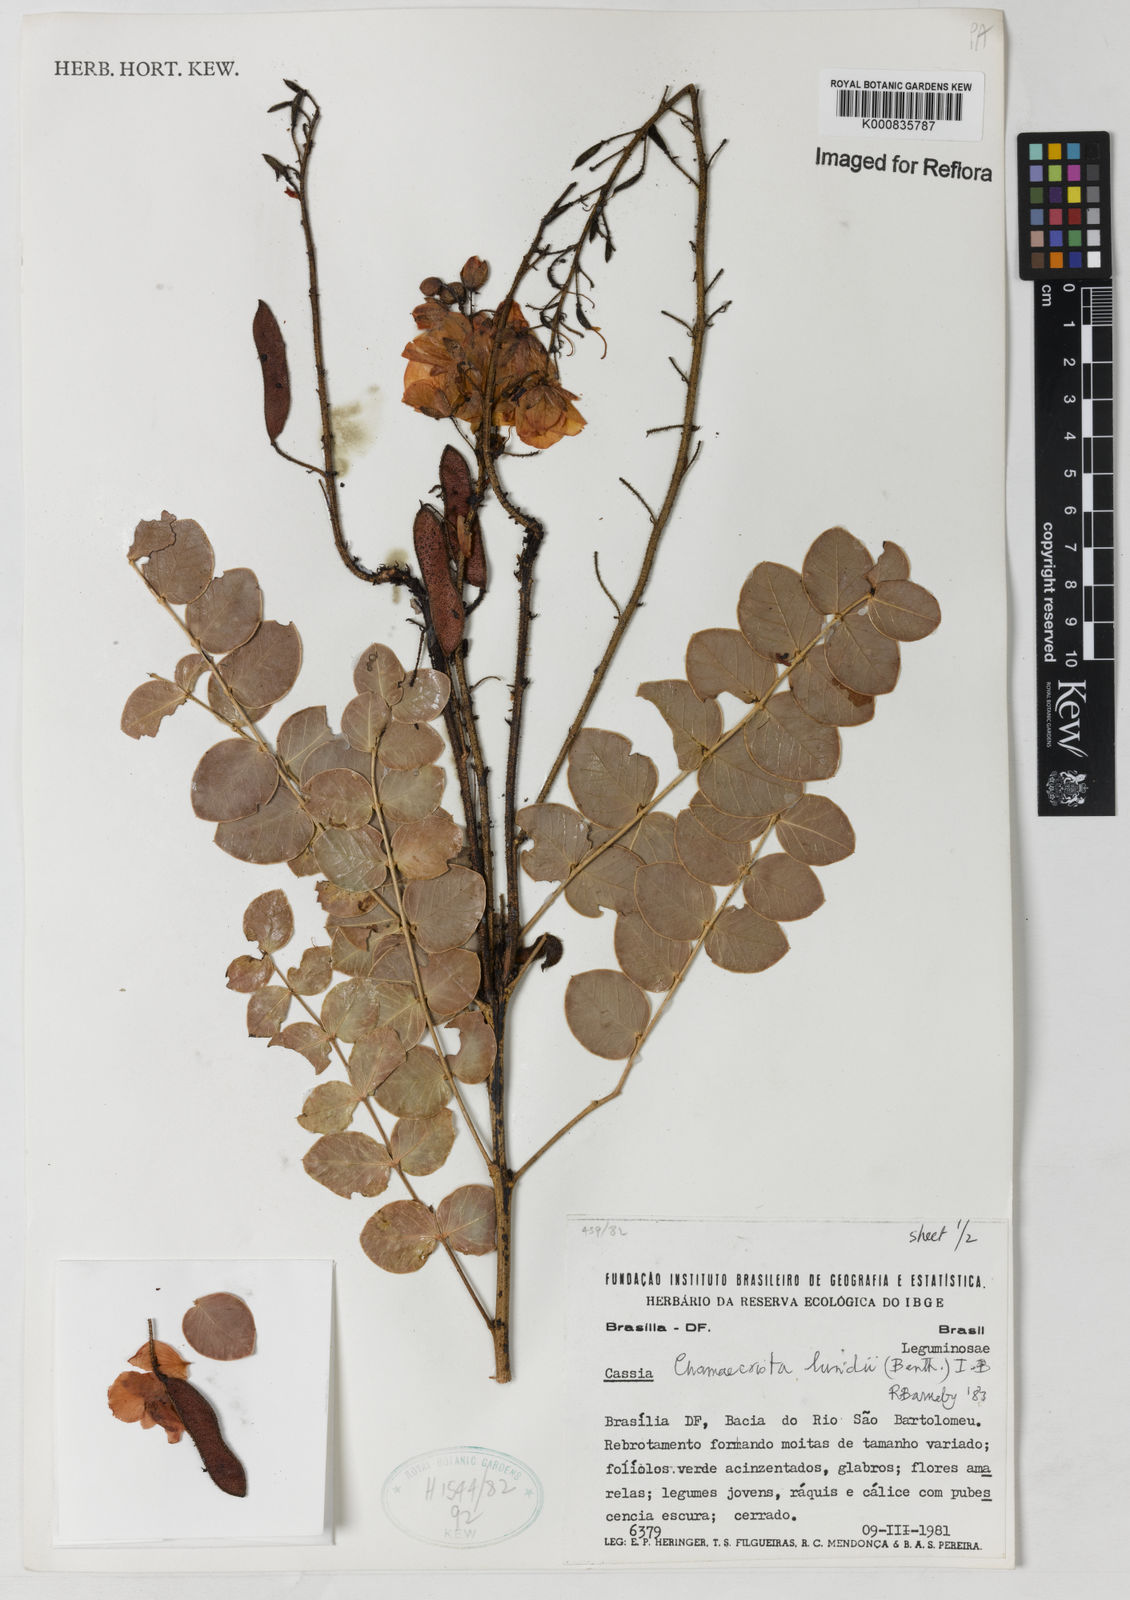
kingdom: Plantae
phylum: Tracheophyta
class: Magnoliopsida
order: Fabales
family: Fabaceae
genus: Chamaecrista
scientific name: Chamaecrista lundii
